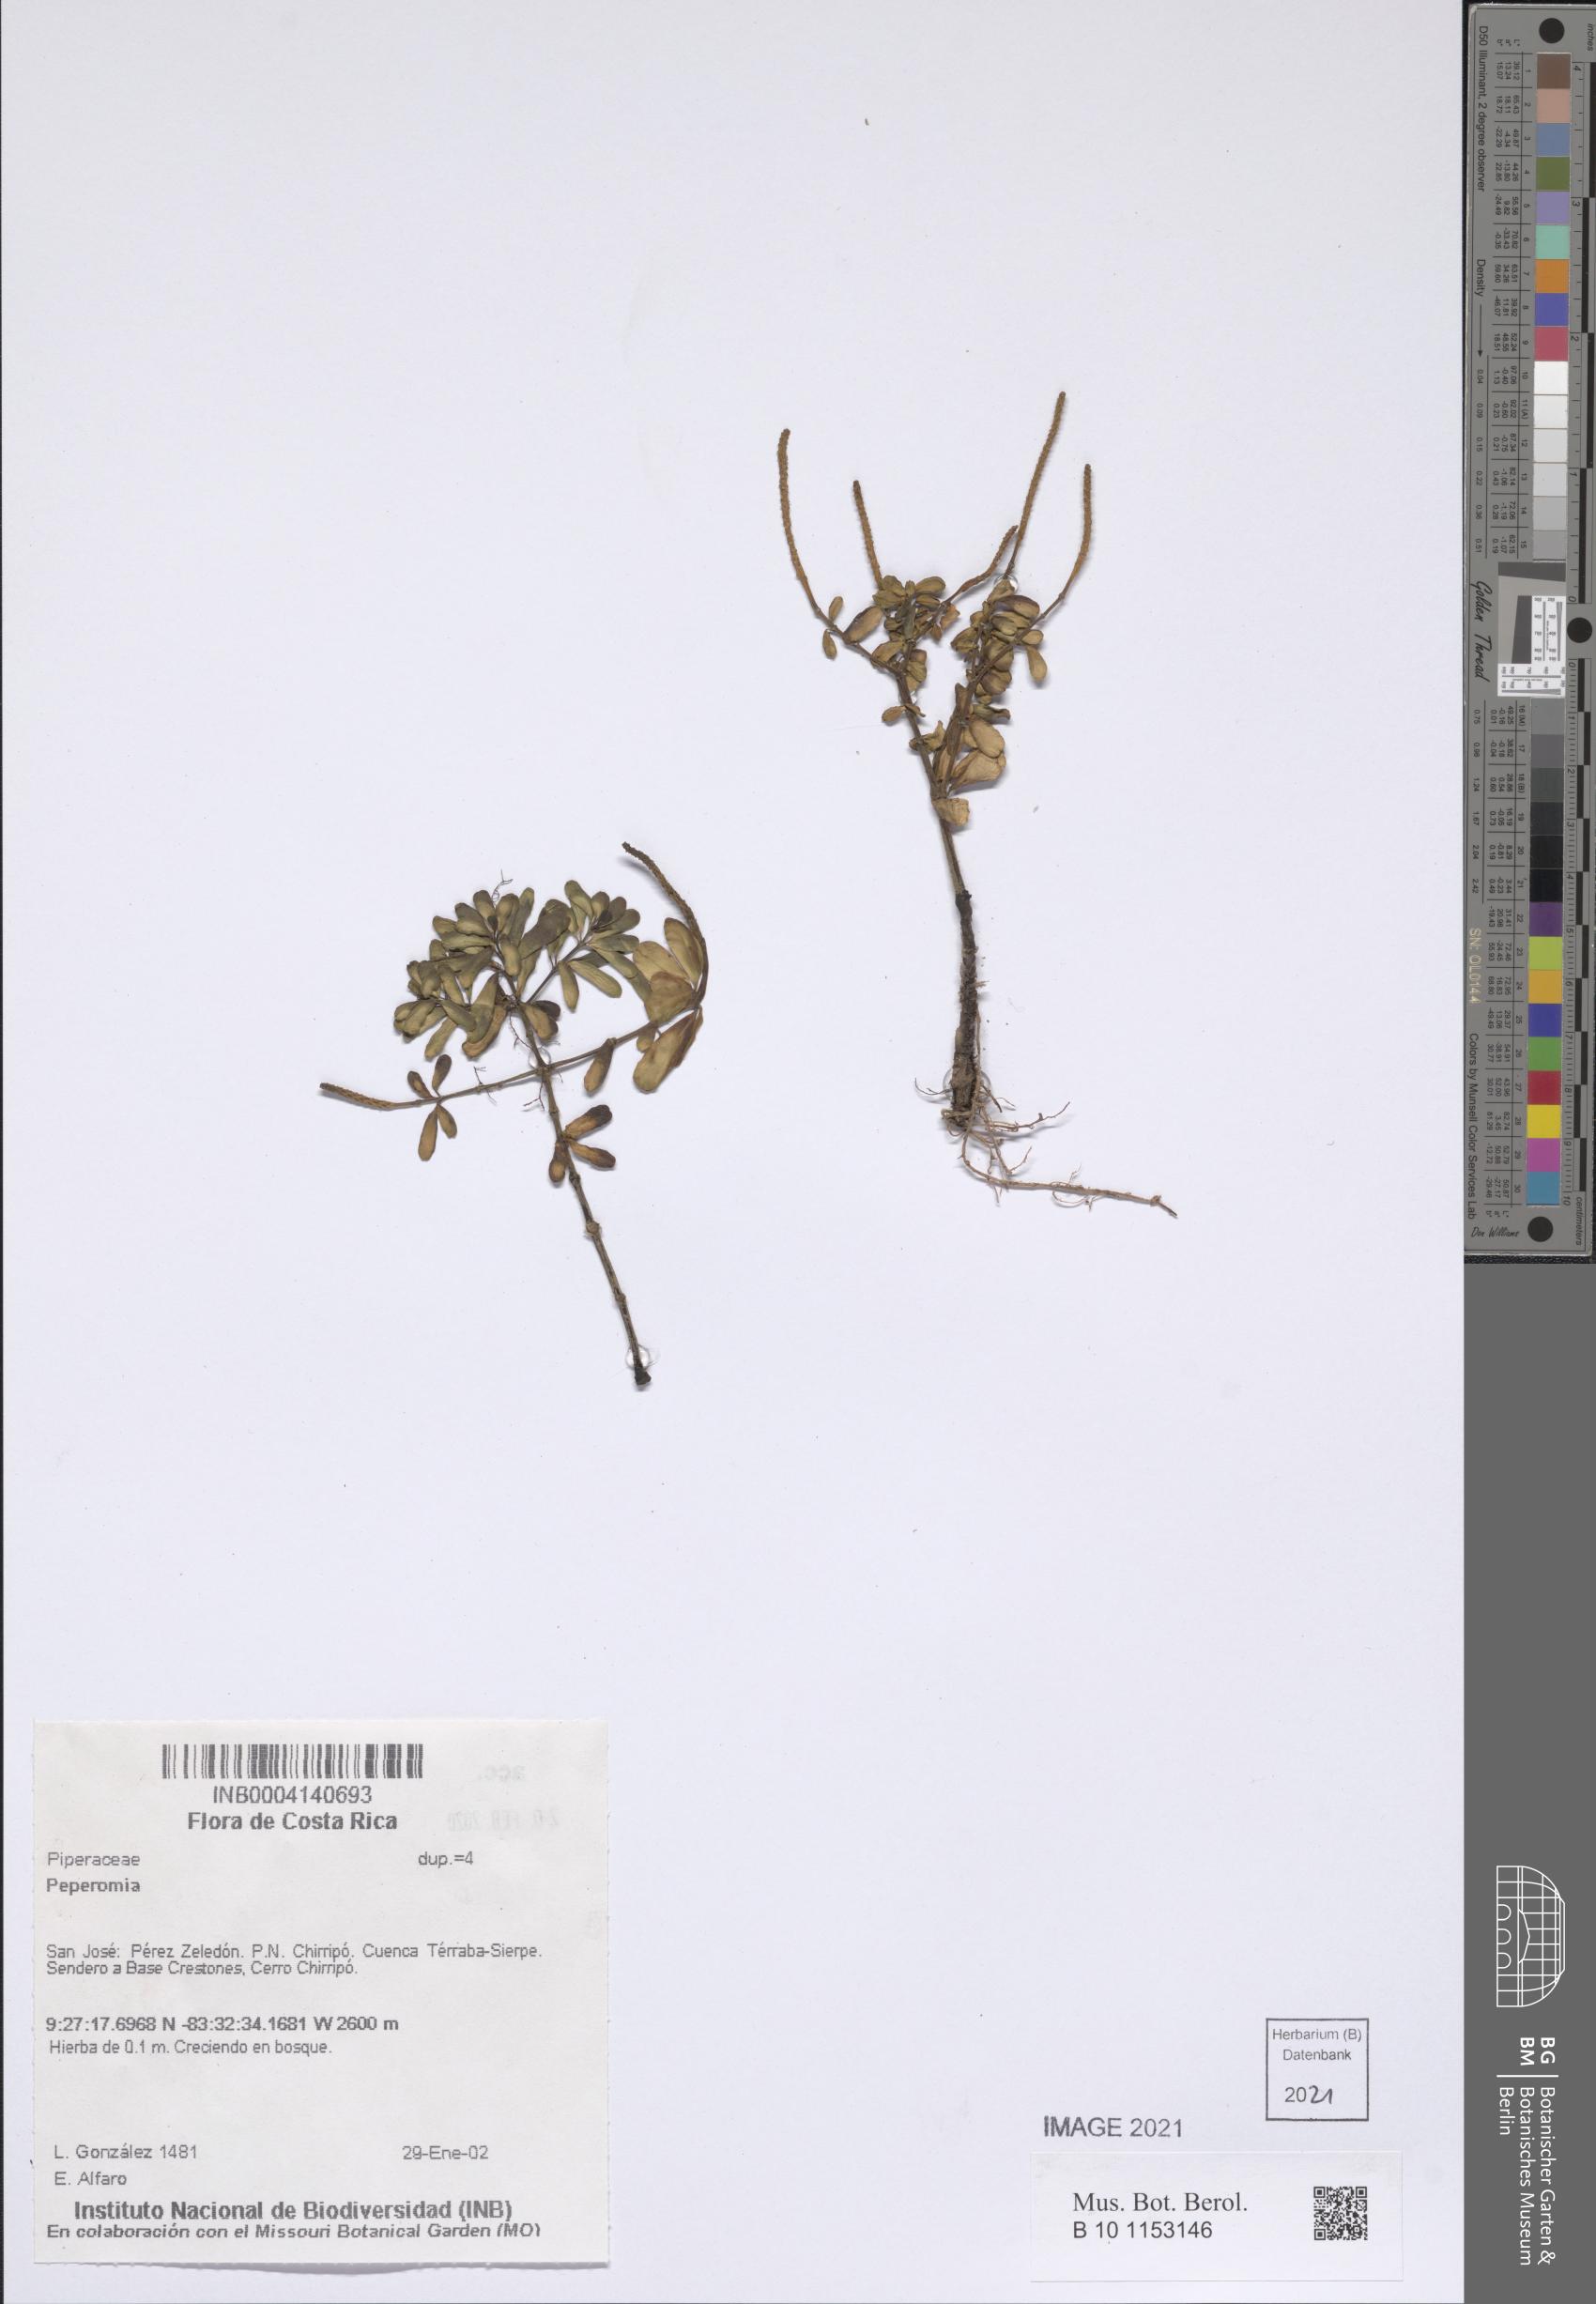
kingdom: Plantae
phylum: Tracheophyta
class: Magnoliopsida
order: Piperales
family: Piperaceae
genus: Peperomia
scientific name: Peperomia
